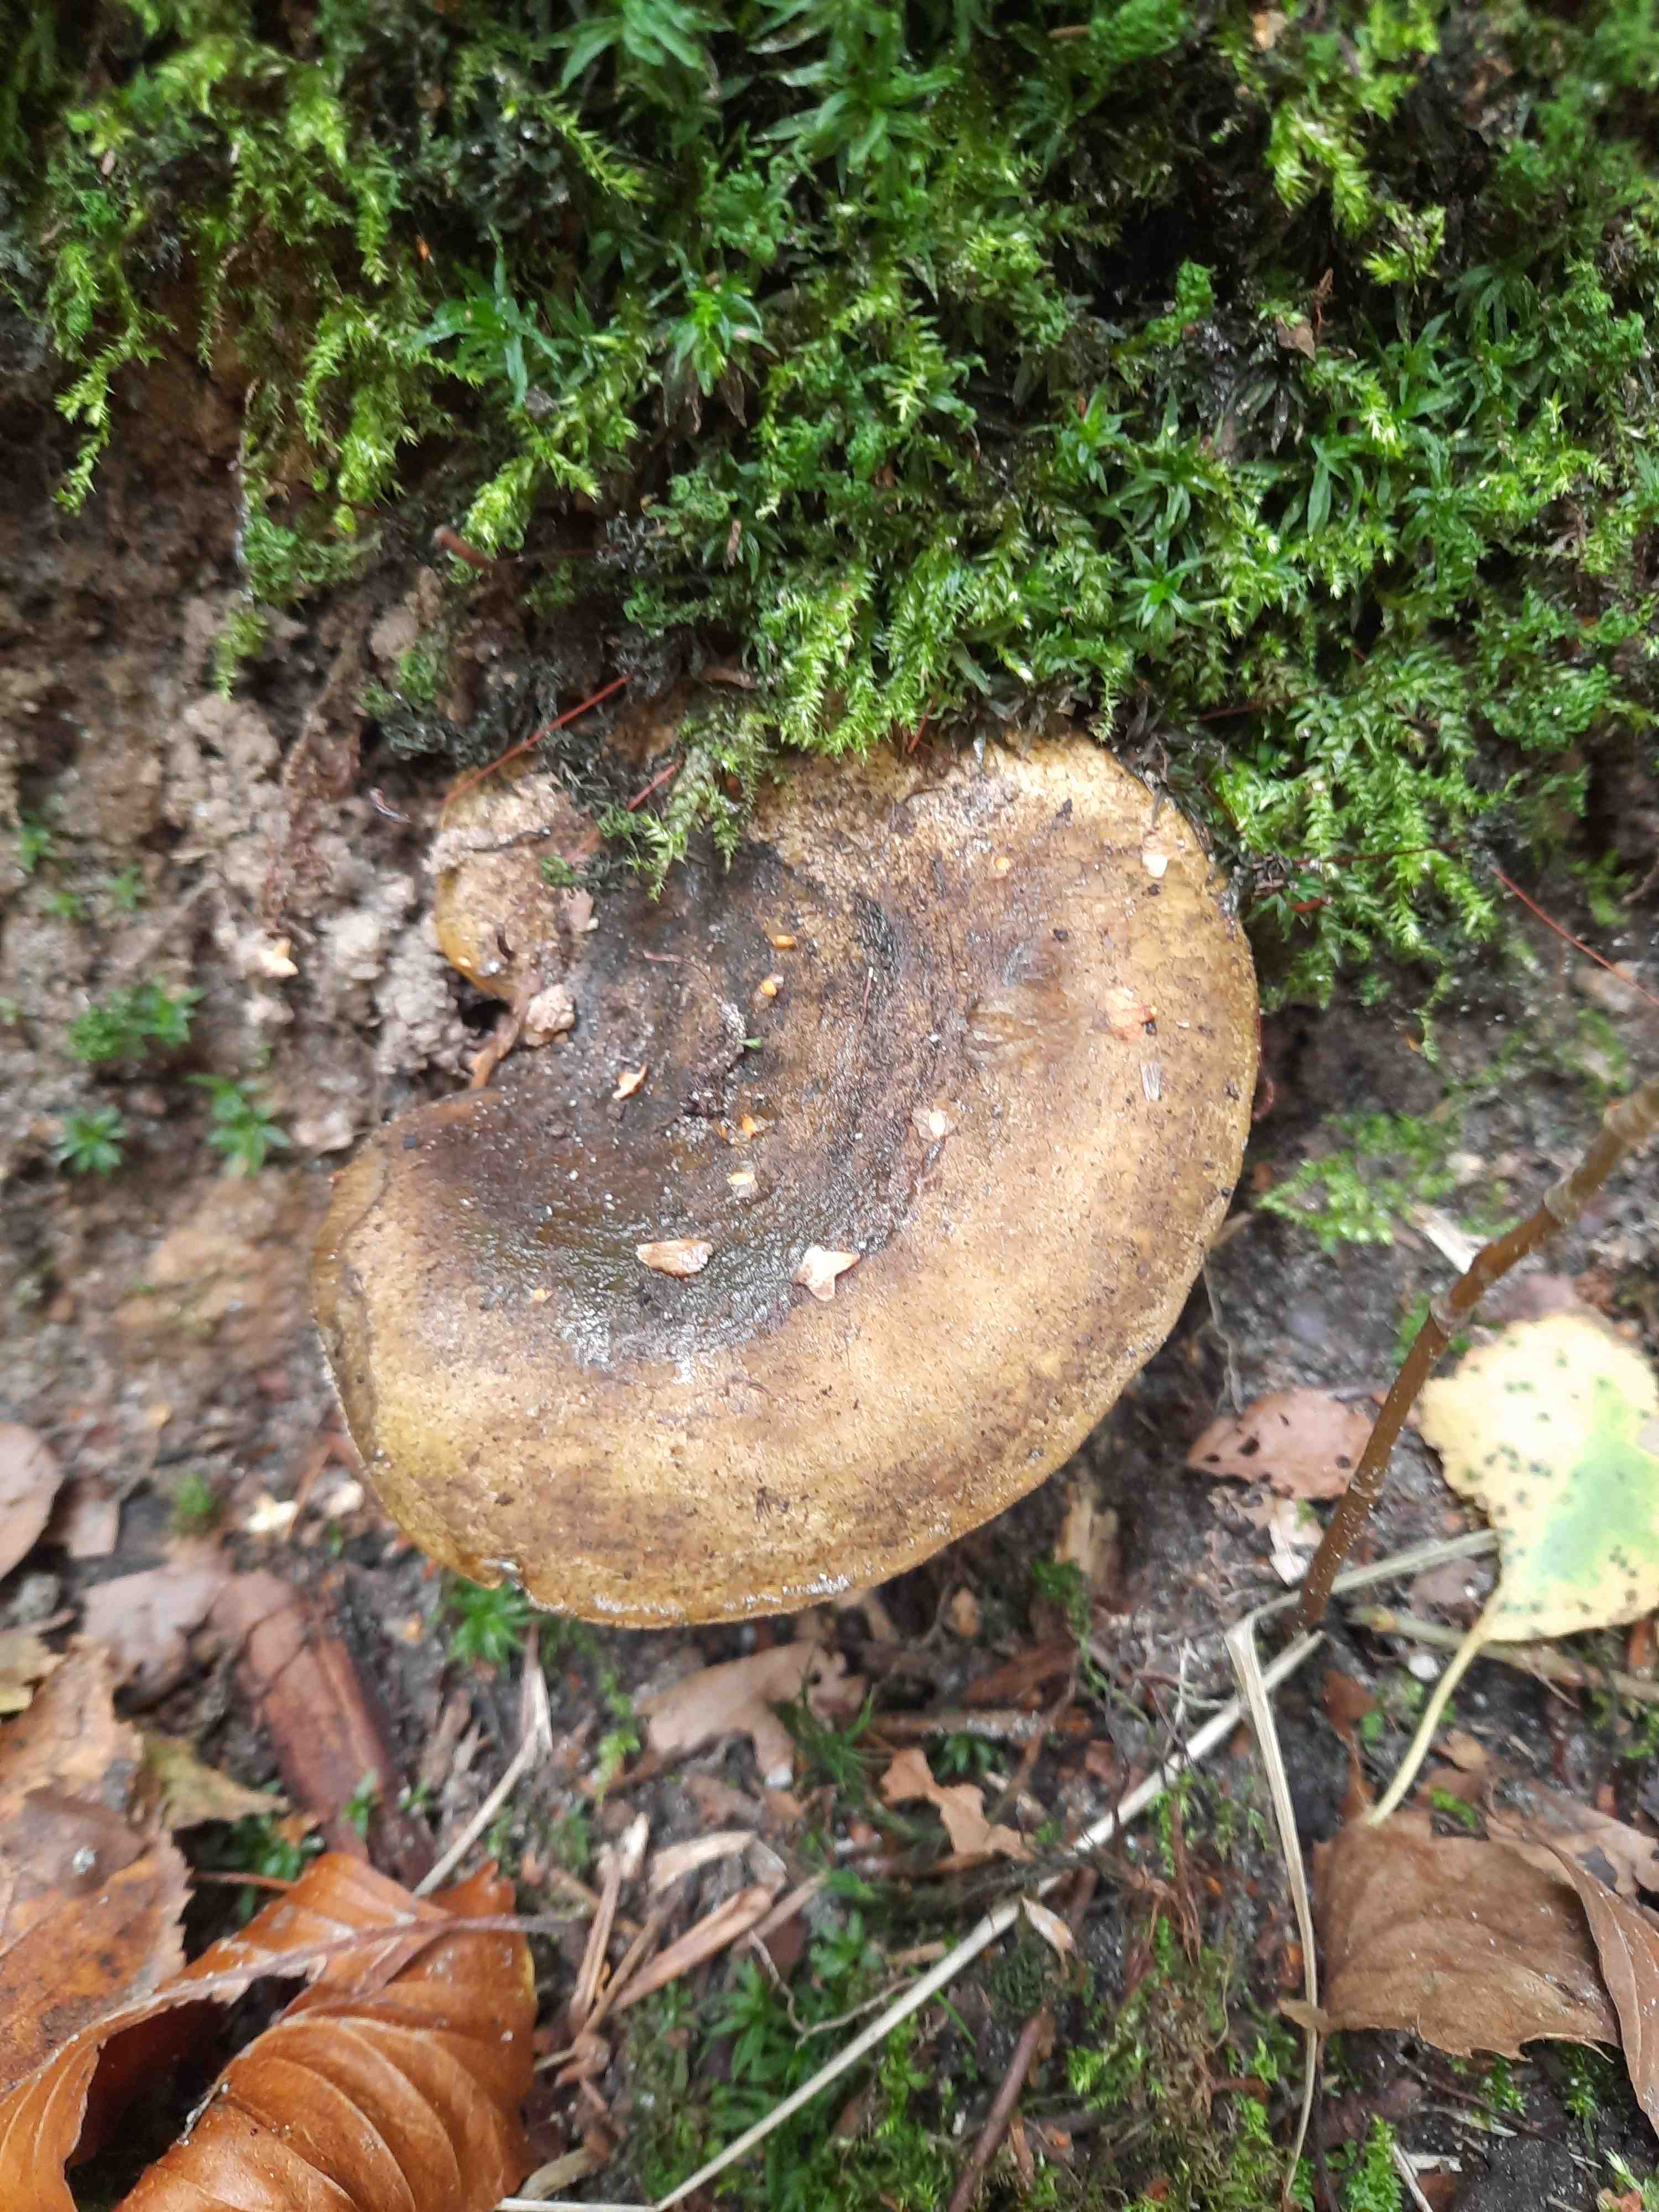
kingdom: Fungi
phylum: Basidiomycota
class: Agaricomycetes
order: Russulales
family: Russulaceae
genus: Lactarius
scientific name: Lactarius necator
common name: manddraber-mælkehat
